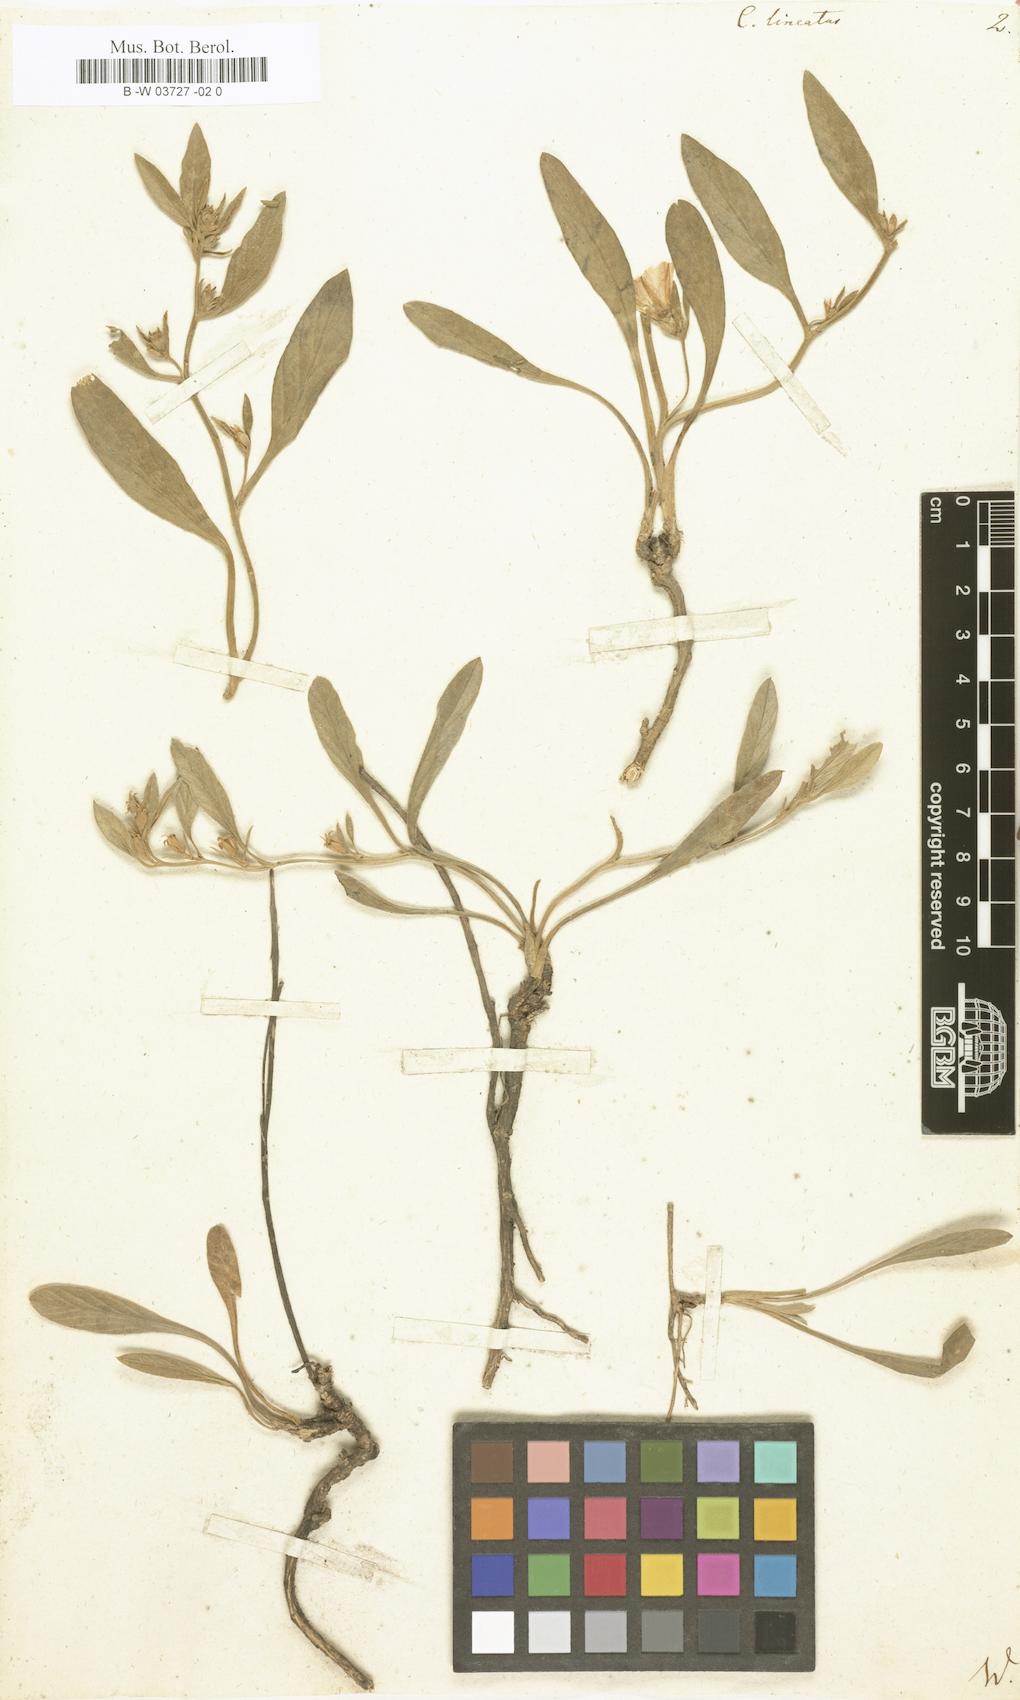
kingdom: Plantae
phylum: Tracheophyta
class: Magnoliopsida
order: Solanales
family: Convolvulaceae
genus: Convolvulus
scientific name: Convolvulus lineatus
